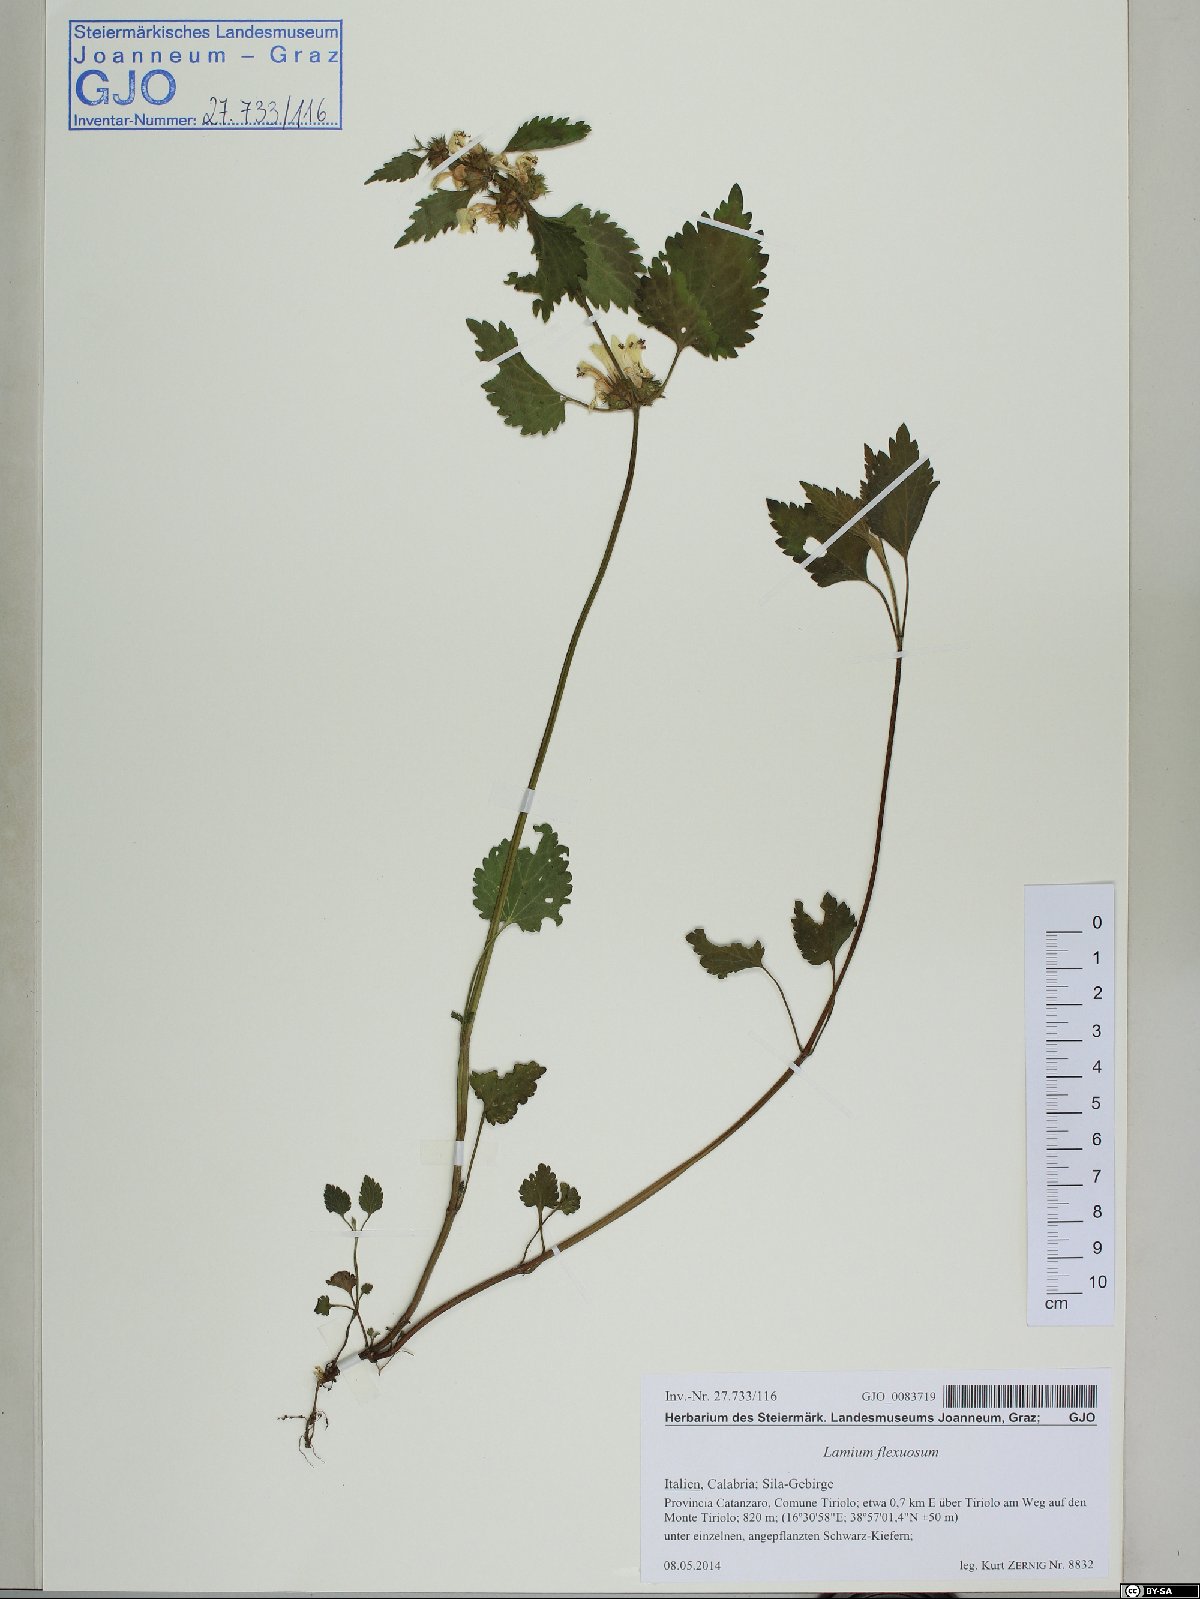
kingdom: Plantae
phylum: Tracheophyta
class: Magnoliopsida
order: Lamiales
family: Lamiaceae
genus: Lamium
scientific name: Lamium flexuosum
